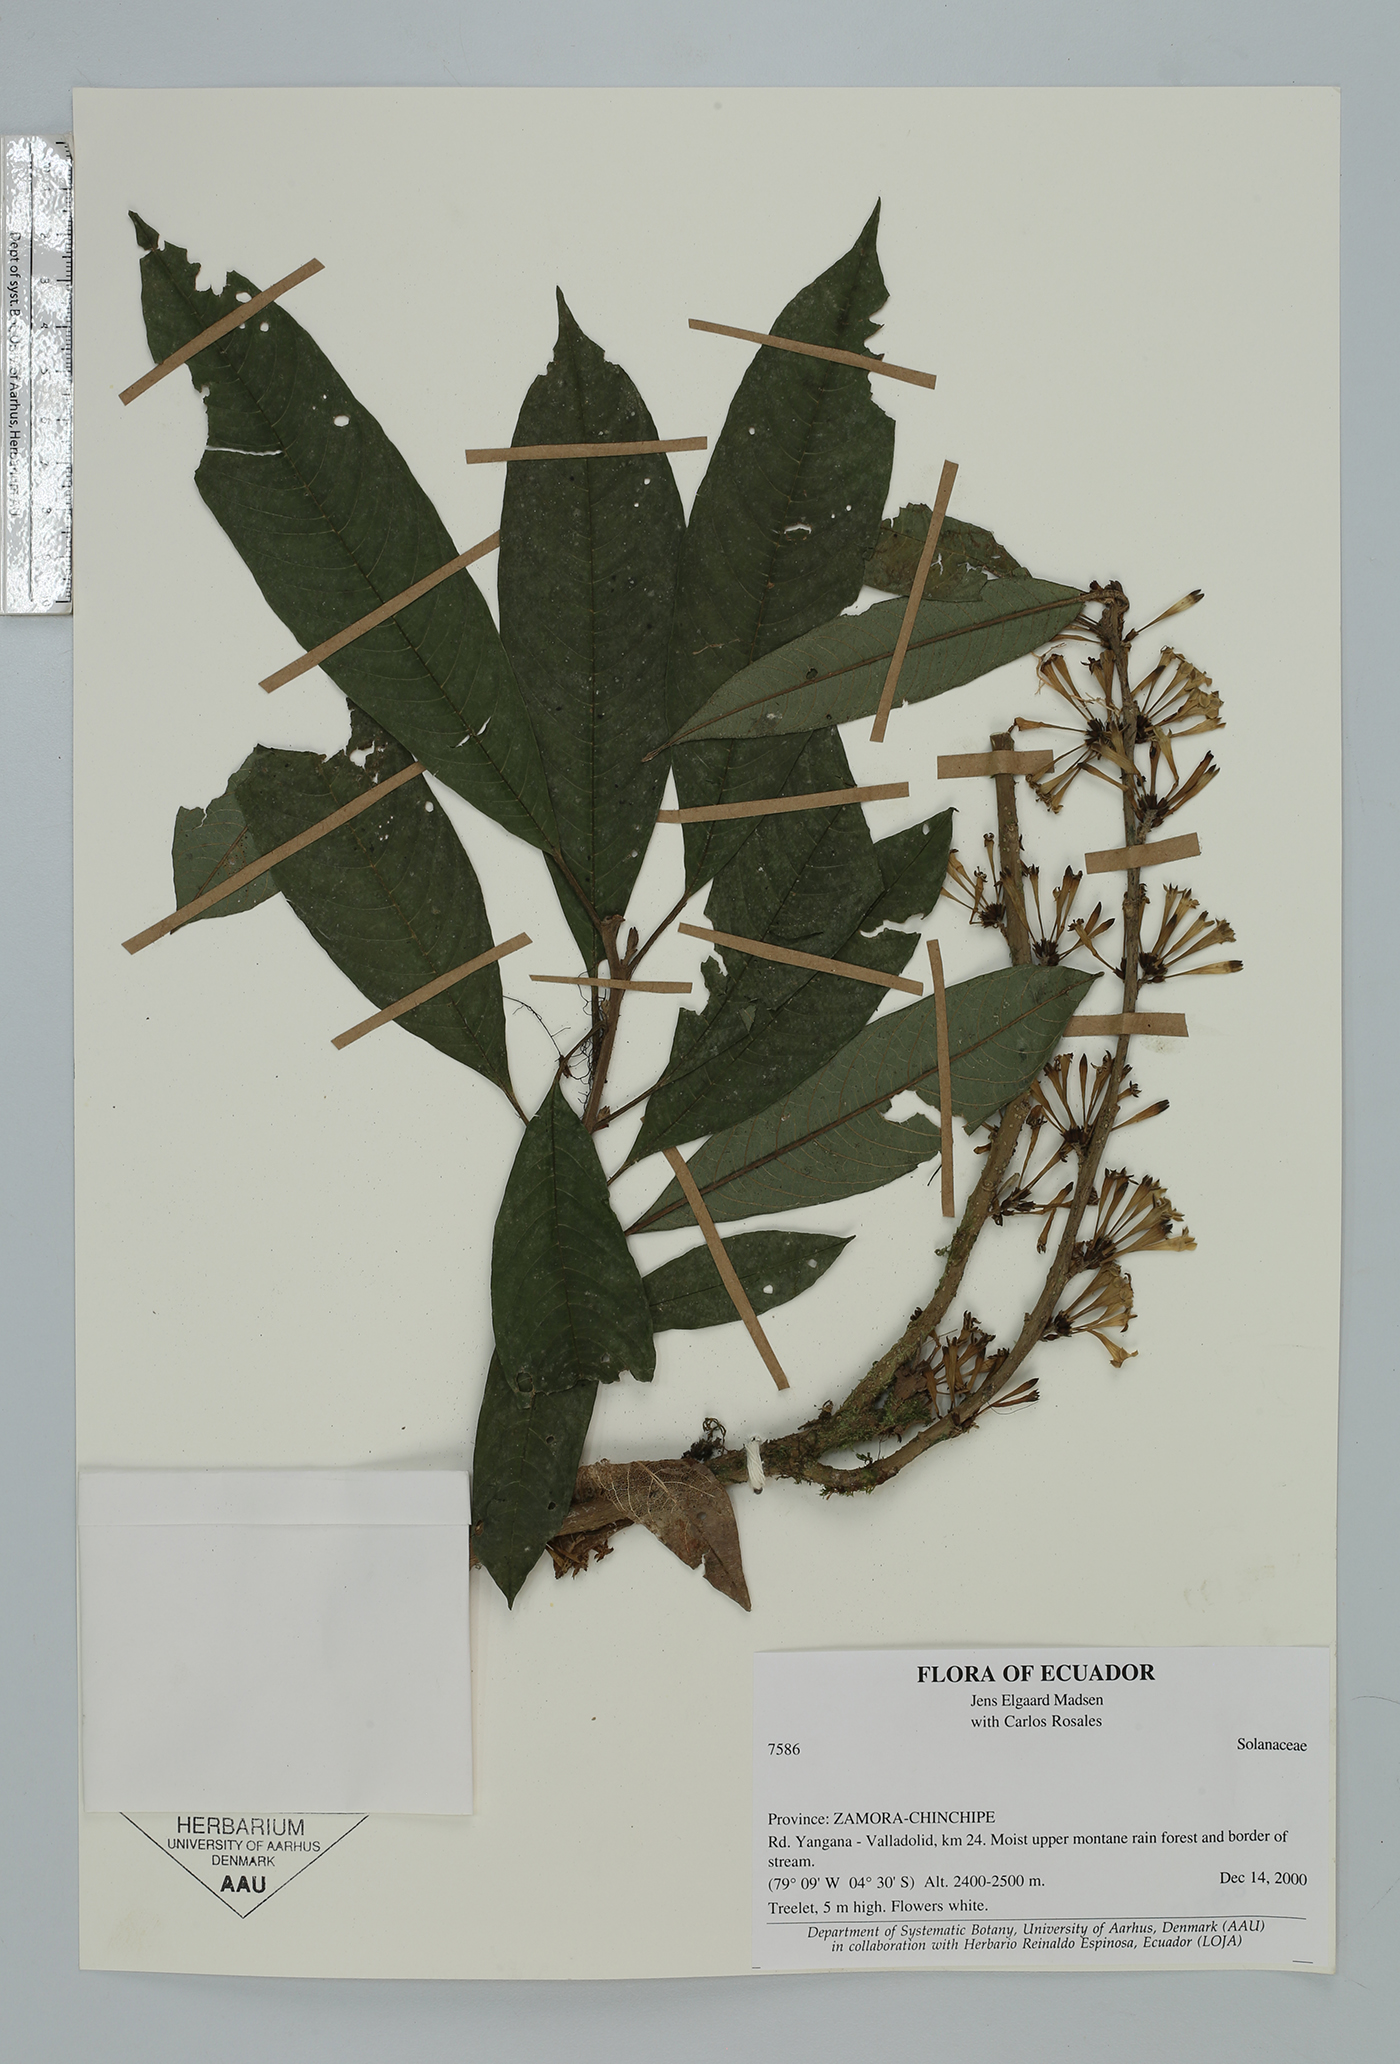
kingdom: Plantae
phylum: Tracheophyta
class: Magnoliopsida
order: Solanales
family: Solanaceae
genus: Cestrum
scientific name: Cestrum
